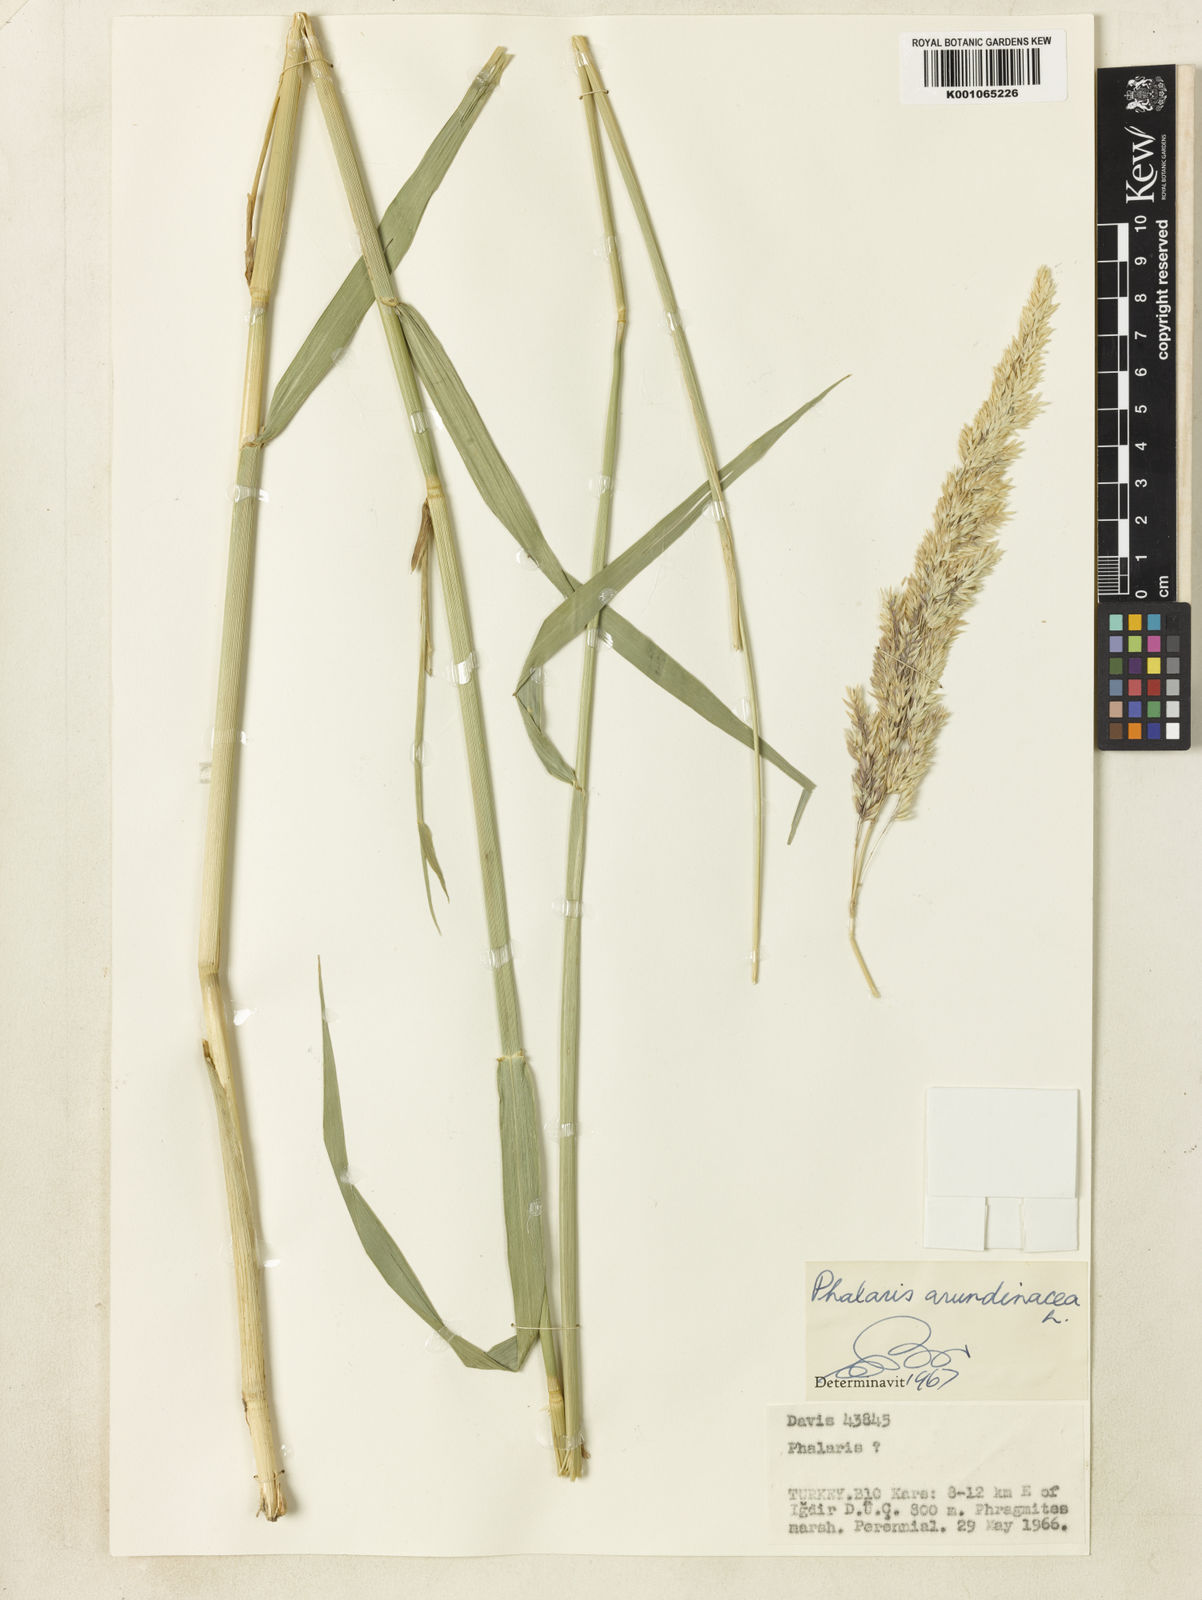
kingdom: Plantae
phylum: Tracheophyta
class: Liliopsida
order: Poales
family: Poaceae
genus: Phalaris
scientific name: Phalaris arundinacea
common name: Reed canary-grass
